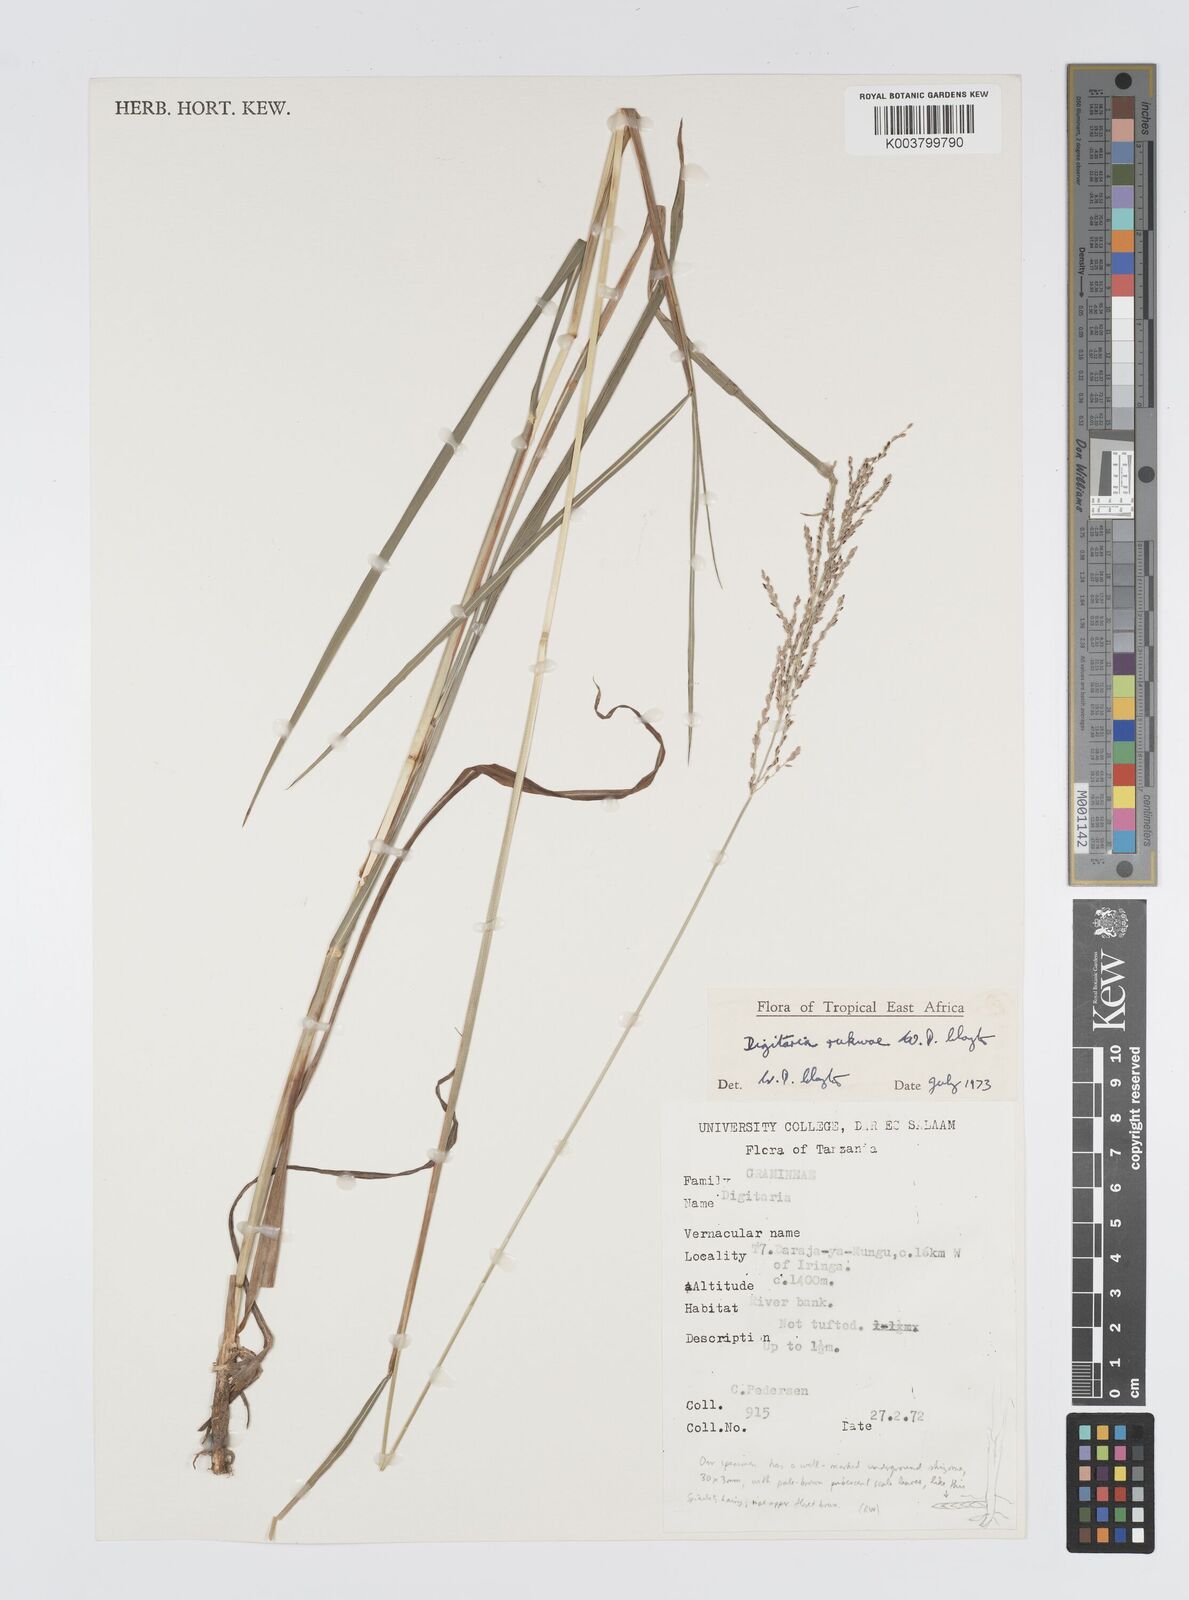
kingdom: Plantae
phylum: Tracheophyta
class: Liliopsida
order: Poales
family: Poaceae
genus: Digitaria
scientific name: Digitaria rukwae
